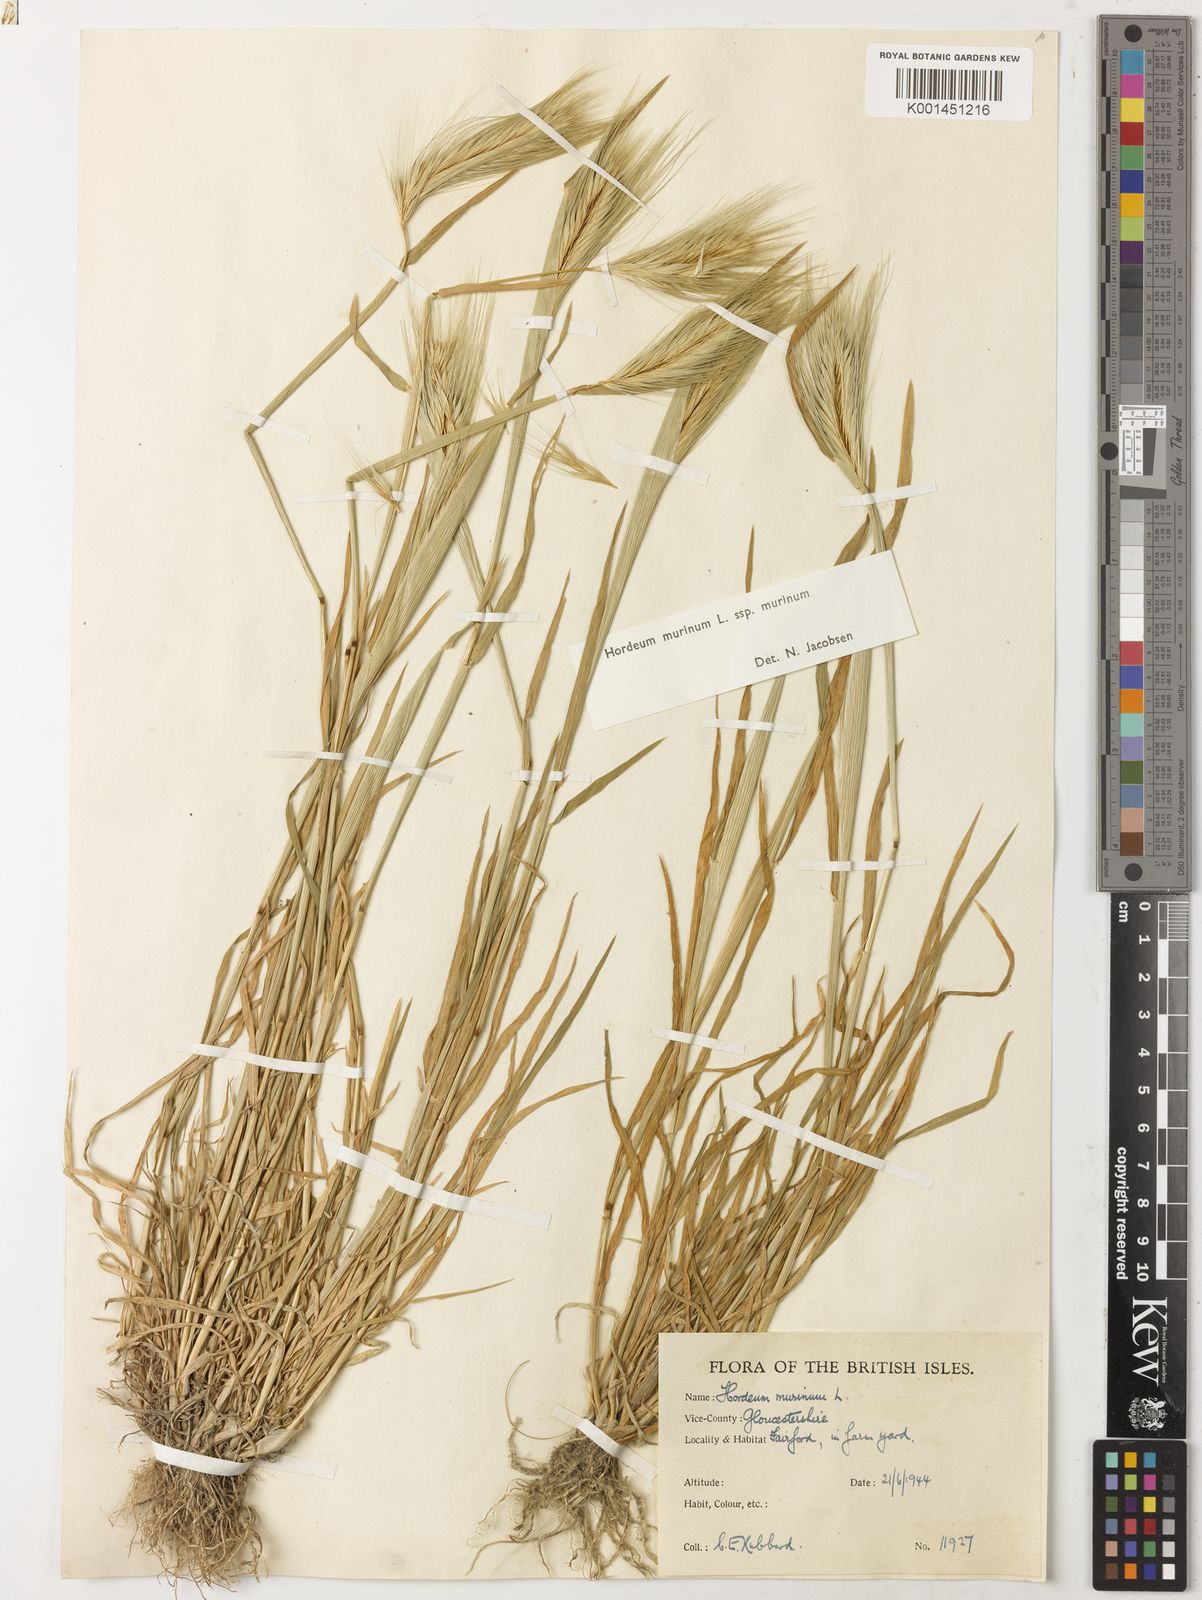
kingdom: Plantae
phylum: Tracheophyta
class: Liliopsida
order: Poales
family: Poaceae
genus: Hordeum
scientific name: Hordeum murinum
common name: Wall barley
